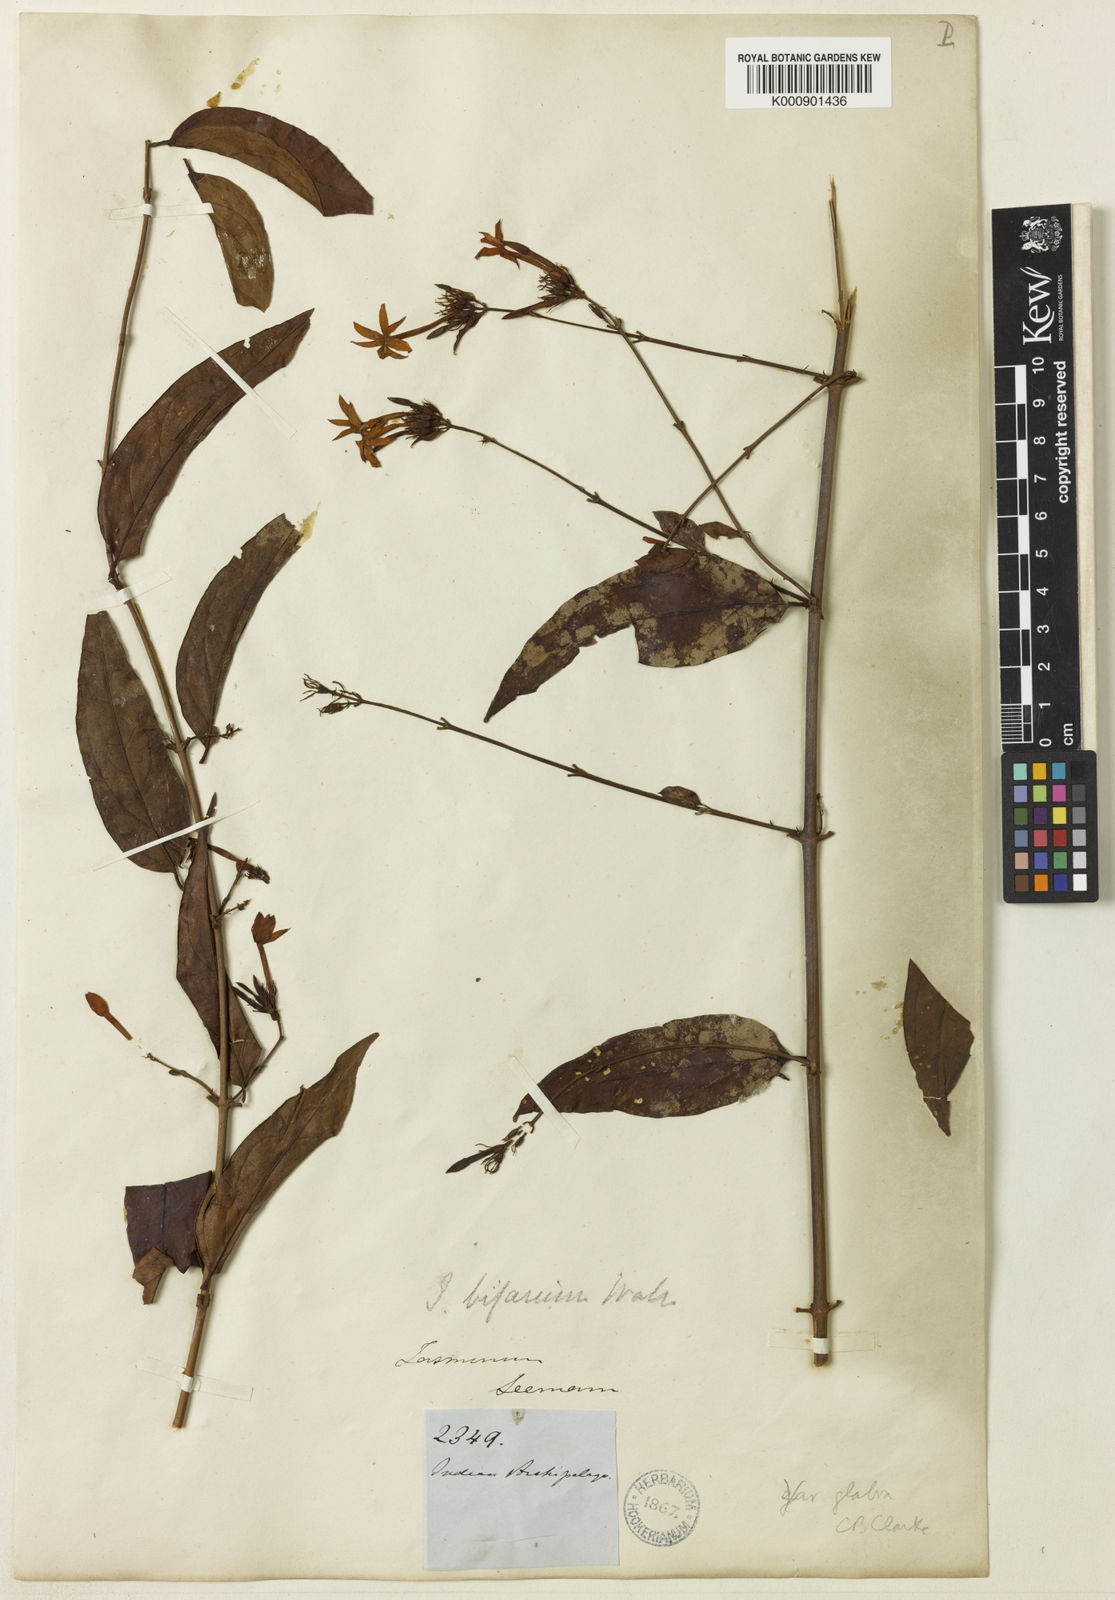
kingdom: Plantae
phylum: Tracheophyta
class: Magnoliopsida
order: Lamiales
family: Oleaceae
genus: Jasminum
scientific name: Jasminum elongatum
